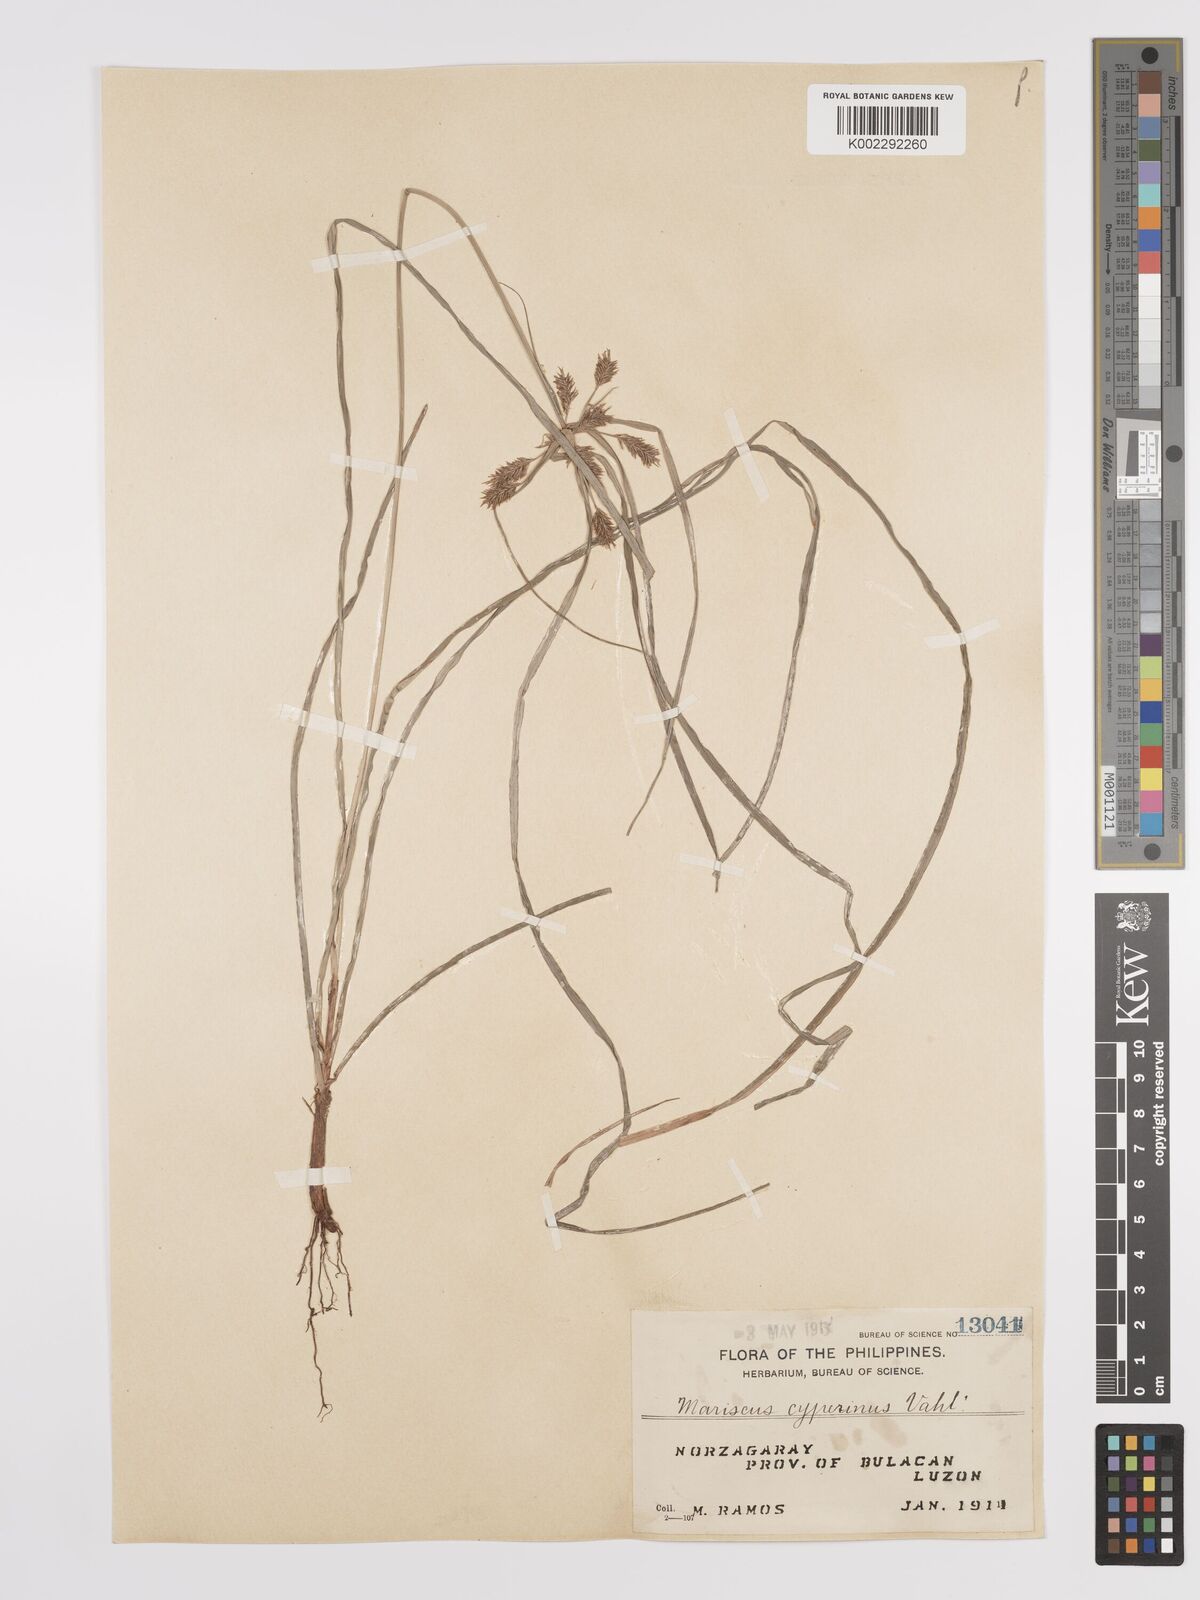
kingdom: Plantae
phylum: Tracheophyta
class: Liliopsida
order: Poales
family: Cyperaceae
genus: Cyperus
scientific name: Cyperus cyperinus
